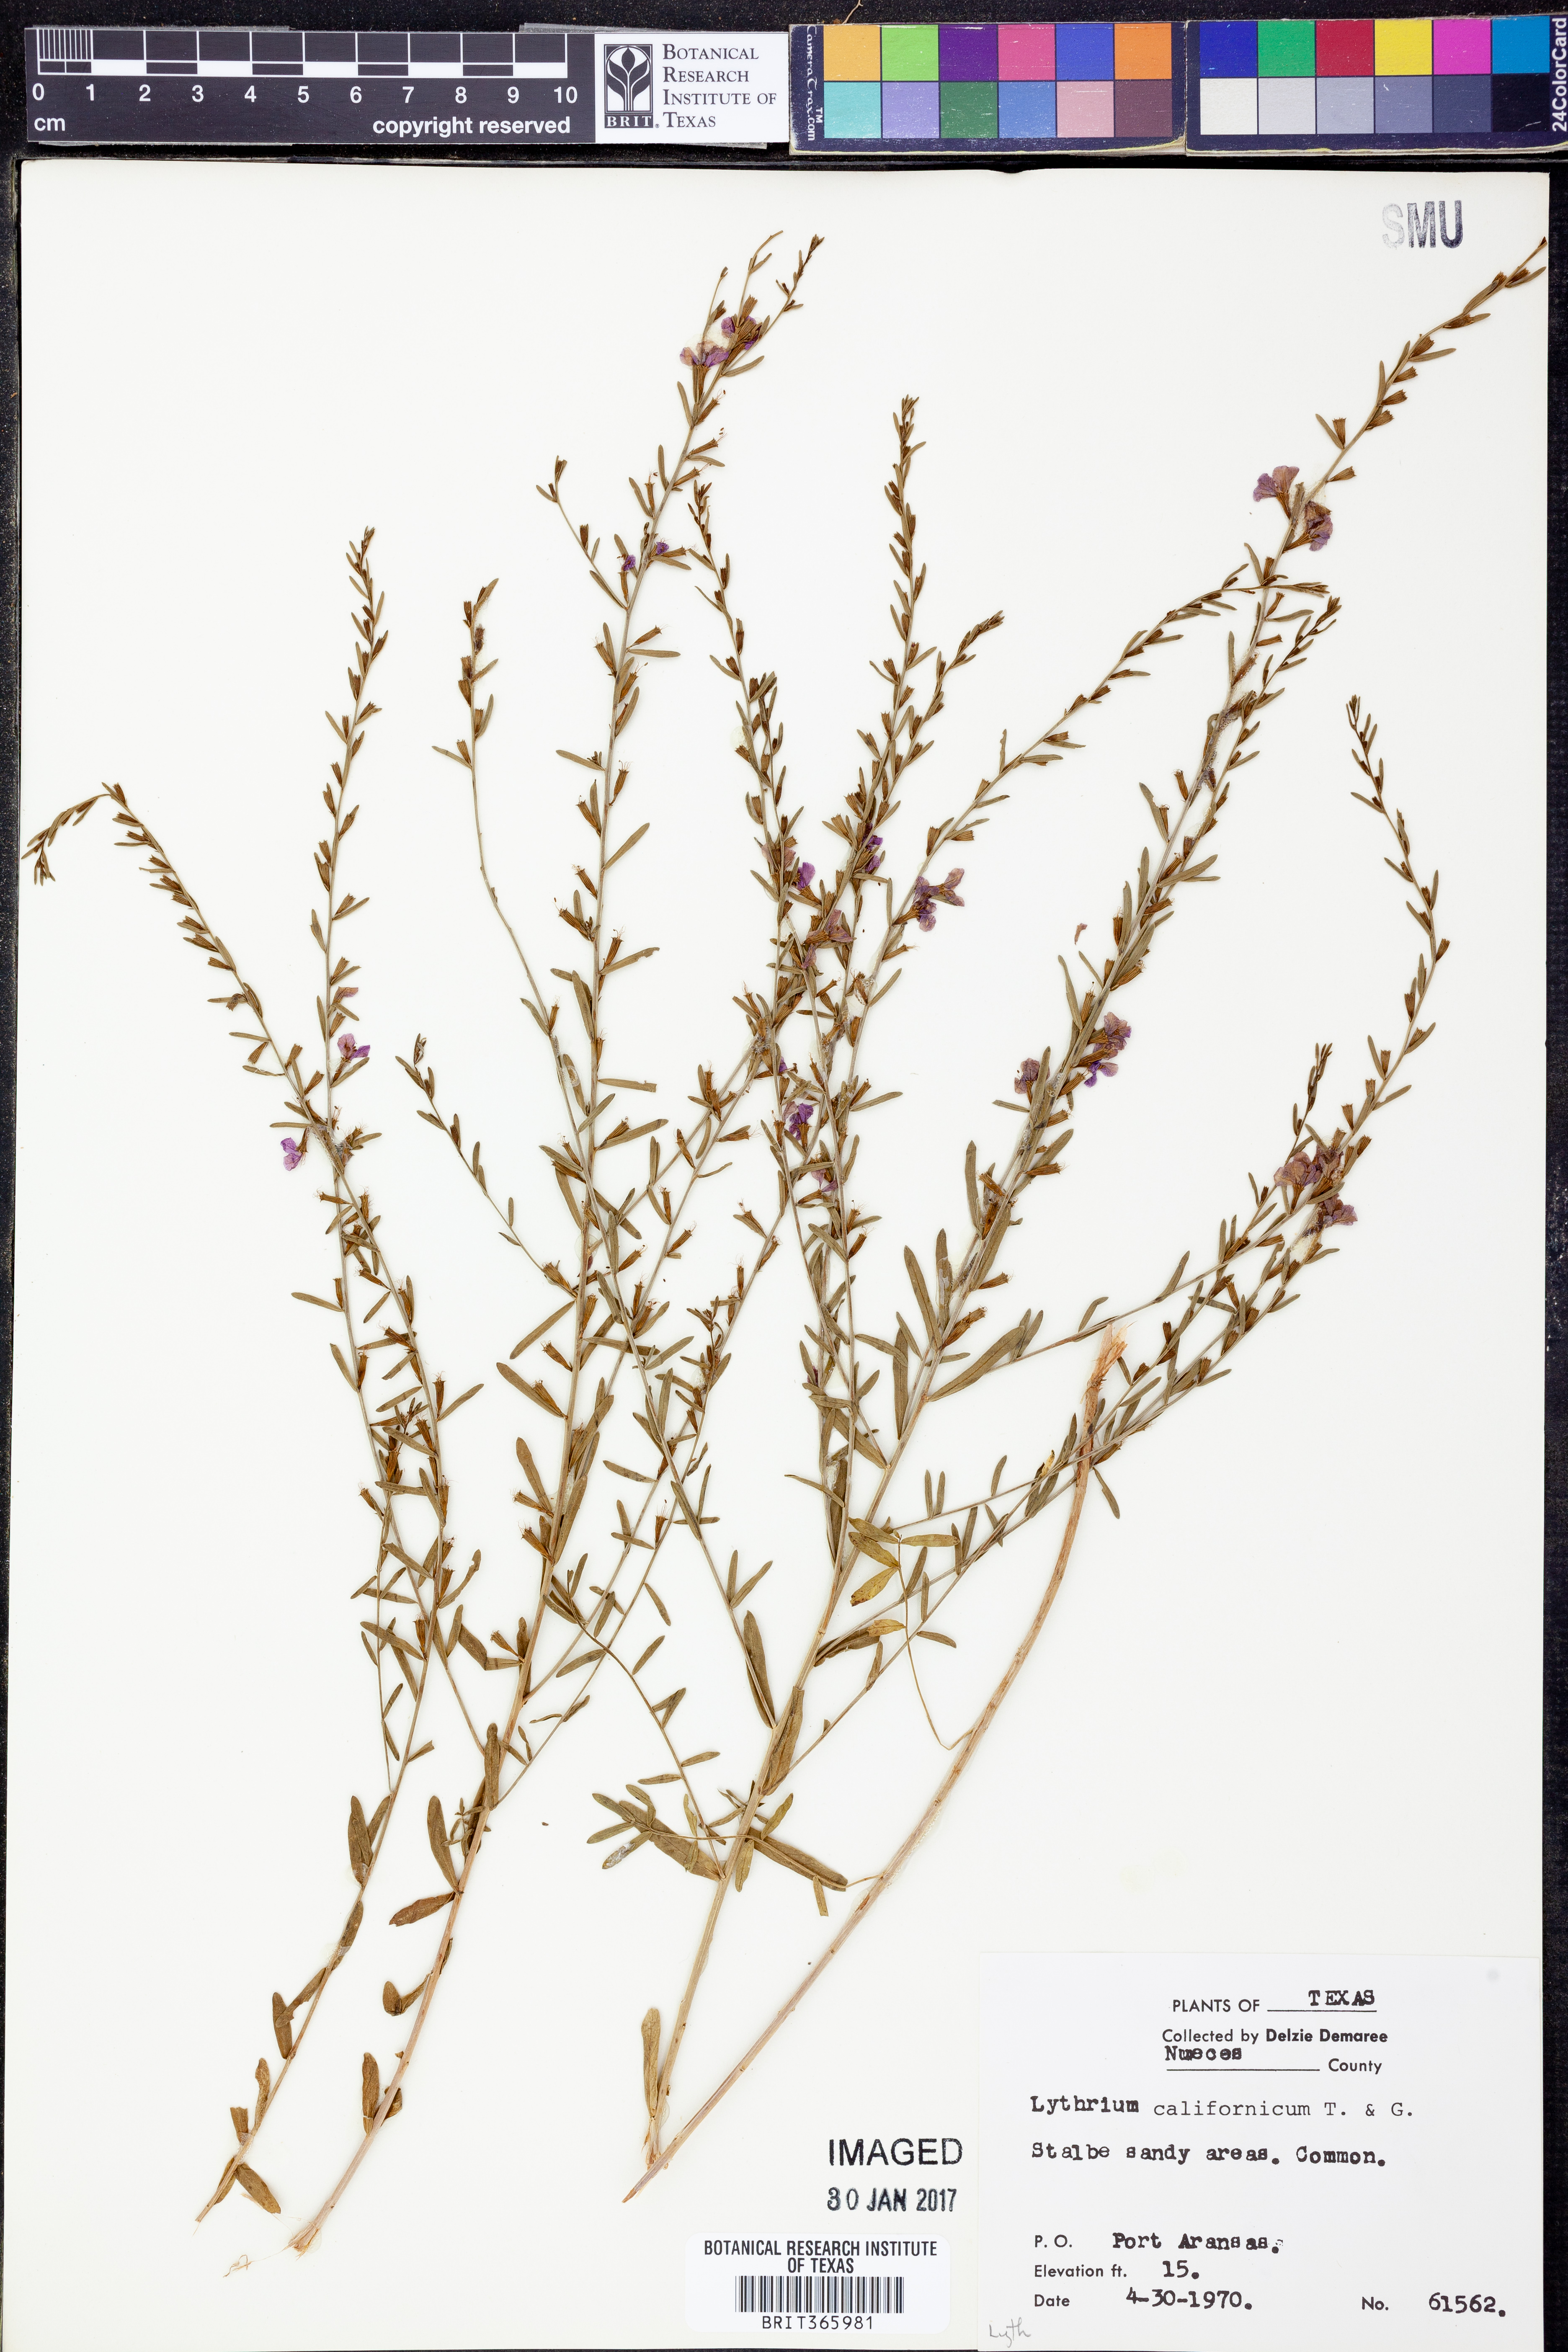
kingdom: Plantae
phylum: Tracheophyta
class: Magnoliopsida
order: Myrtales
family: Lythraceae
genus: Lythrum
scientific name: Lythrum californicum
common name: California loosestrife
